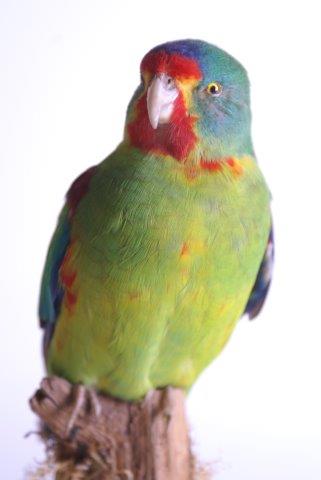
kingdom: Animalia
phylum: Chordata
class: Aves
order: Psittaciformes
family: Psittacidae
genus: Lathamus
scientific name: Lathamus discolor
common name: Swift parrot
